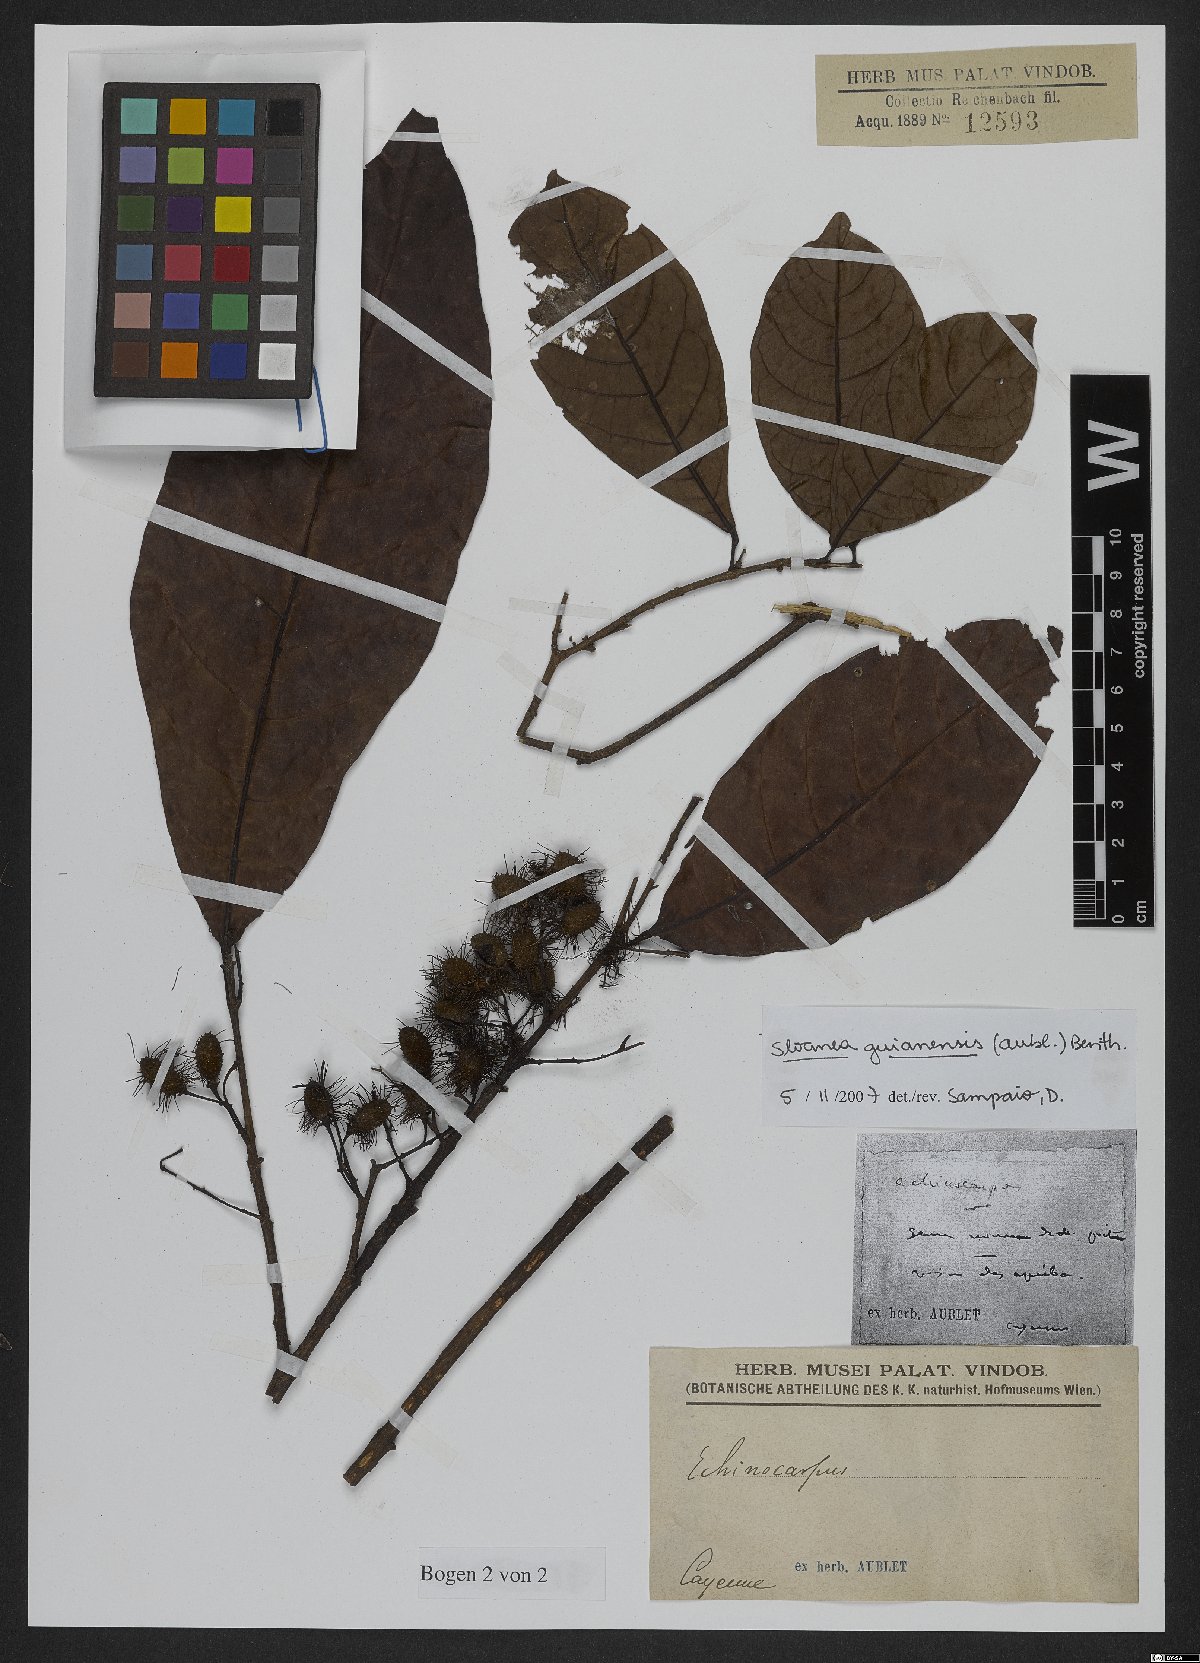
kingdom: Plantae
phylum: Tracheophyta
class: Magnoliopsida
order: Oxalidales
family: Elaeocarpaceae
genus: Sloanea
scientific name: Sloanea guianensis
